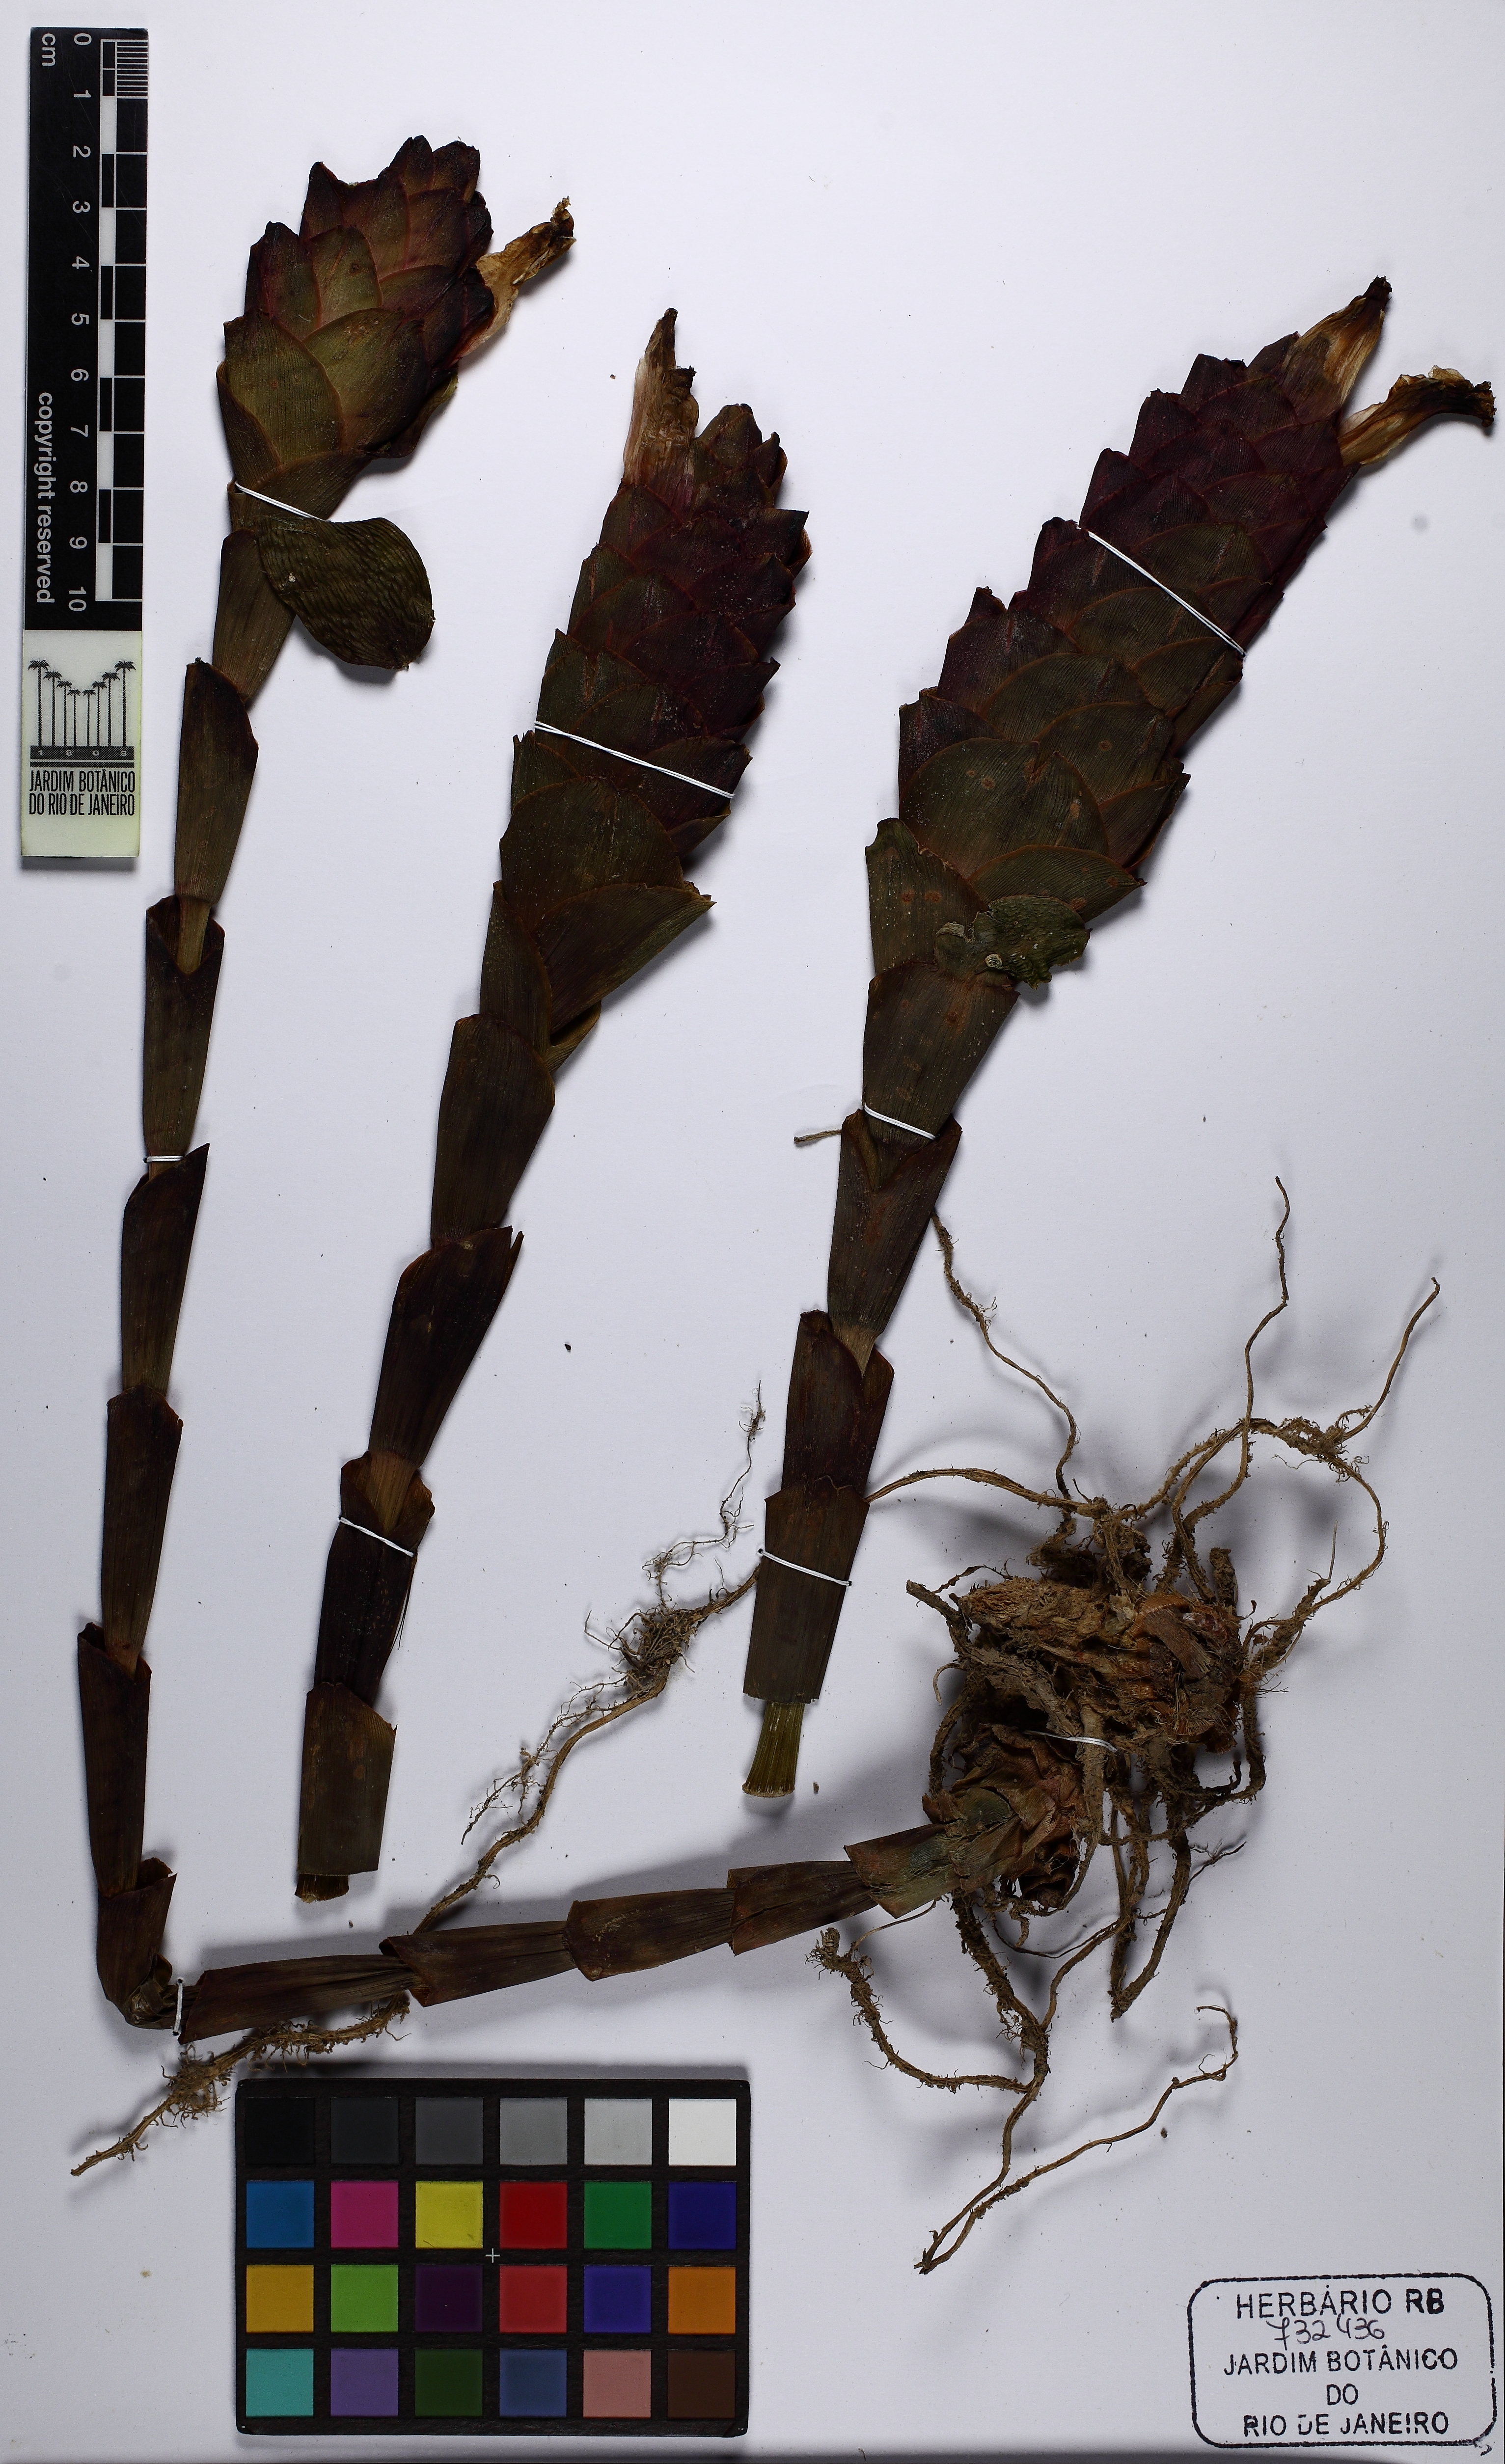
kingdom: Plantae
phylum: Tracheophyta
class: Liliopsida
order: Zingiberales
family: Costaceae
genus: Costus
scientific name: Costus
